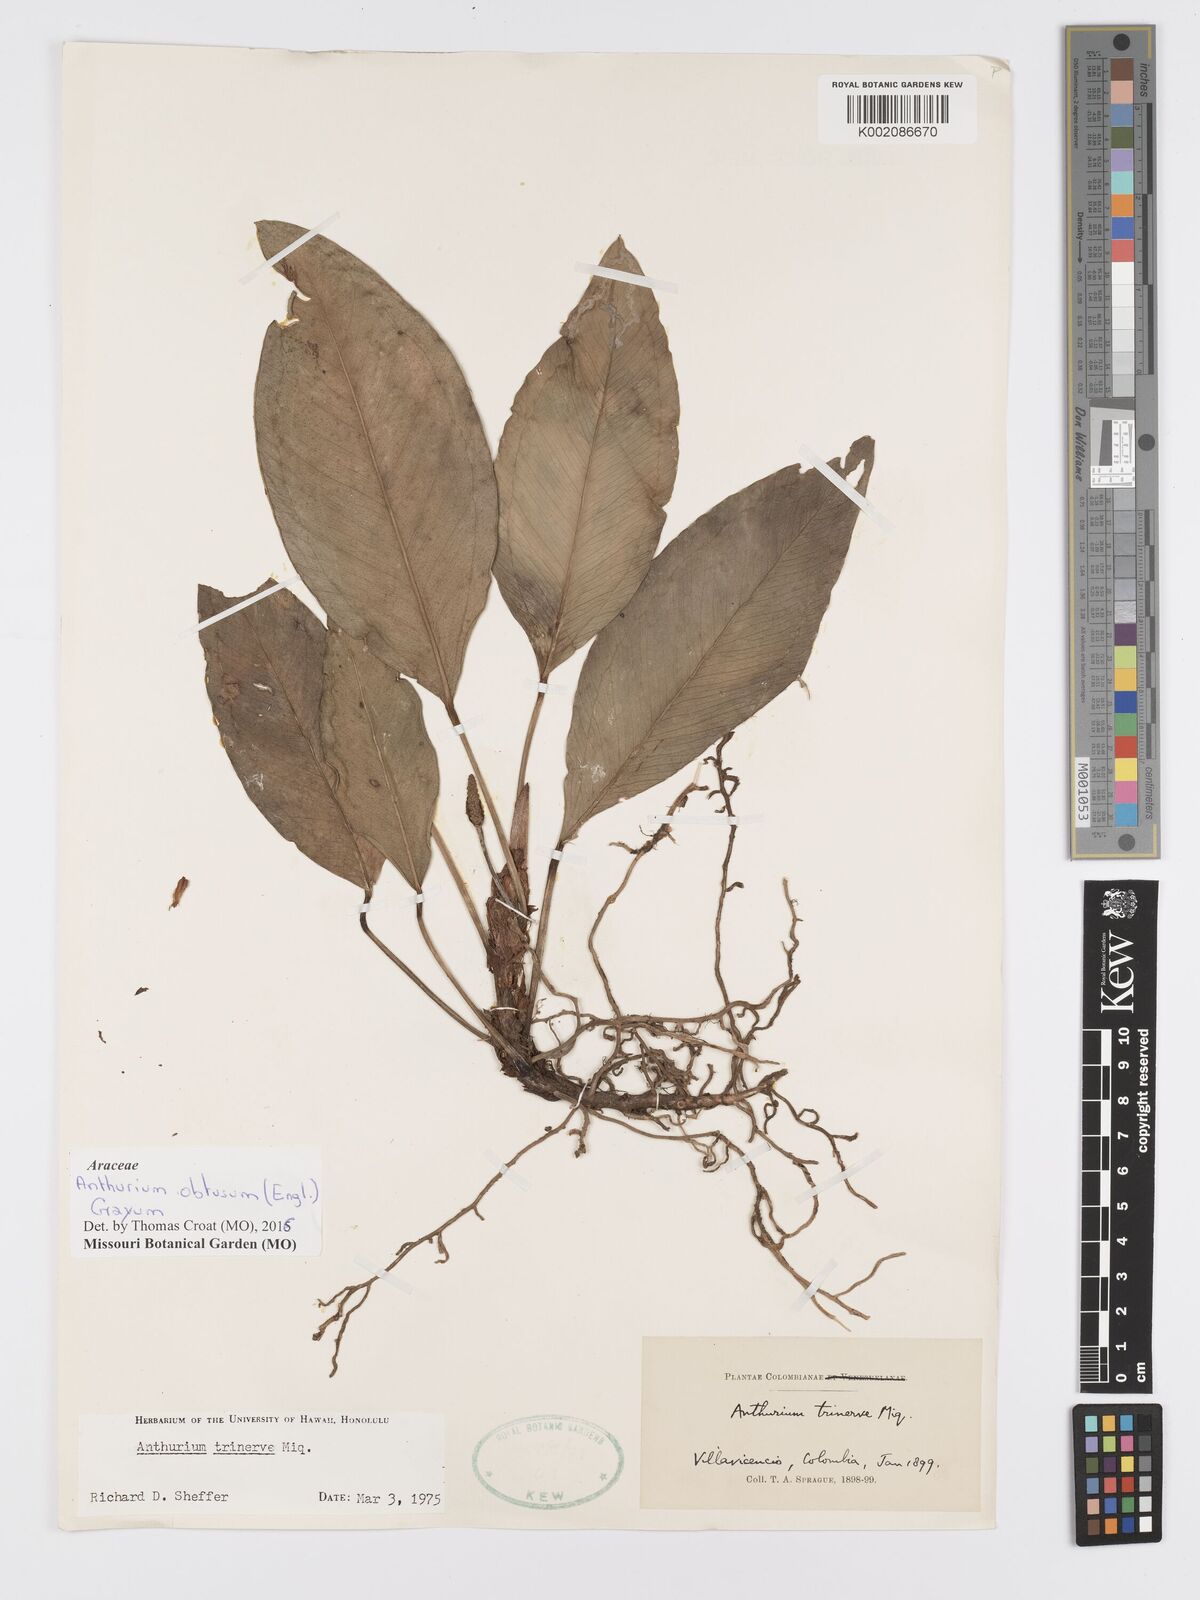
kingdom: Plantae
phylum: Tracheophyta
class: Liliopsida
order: Alismatales
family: Araceae
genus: Anthurium
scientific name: Anthurium obtusum
